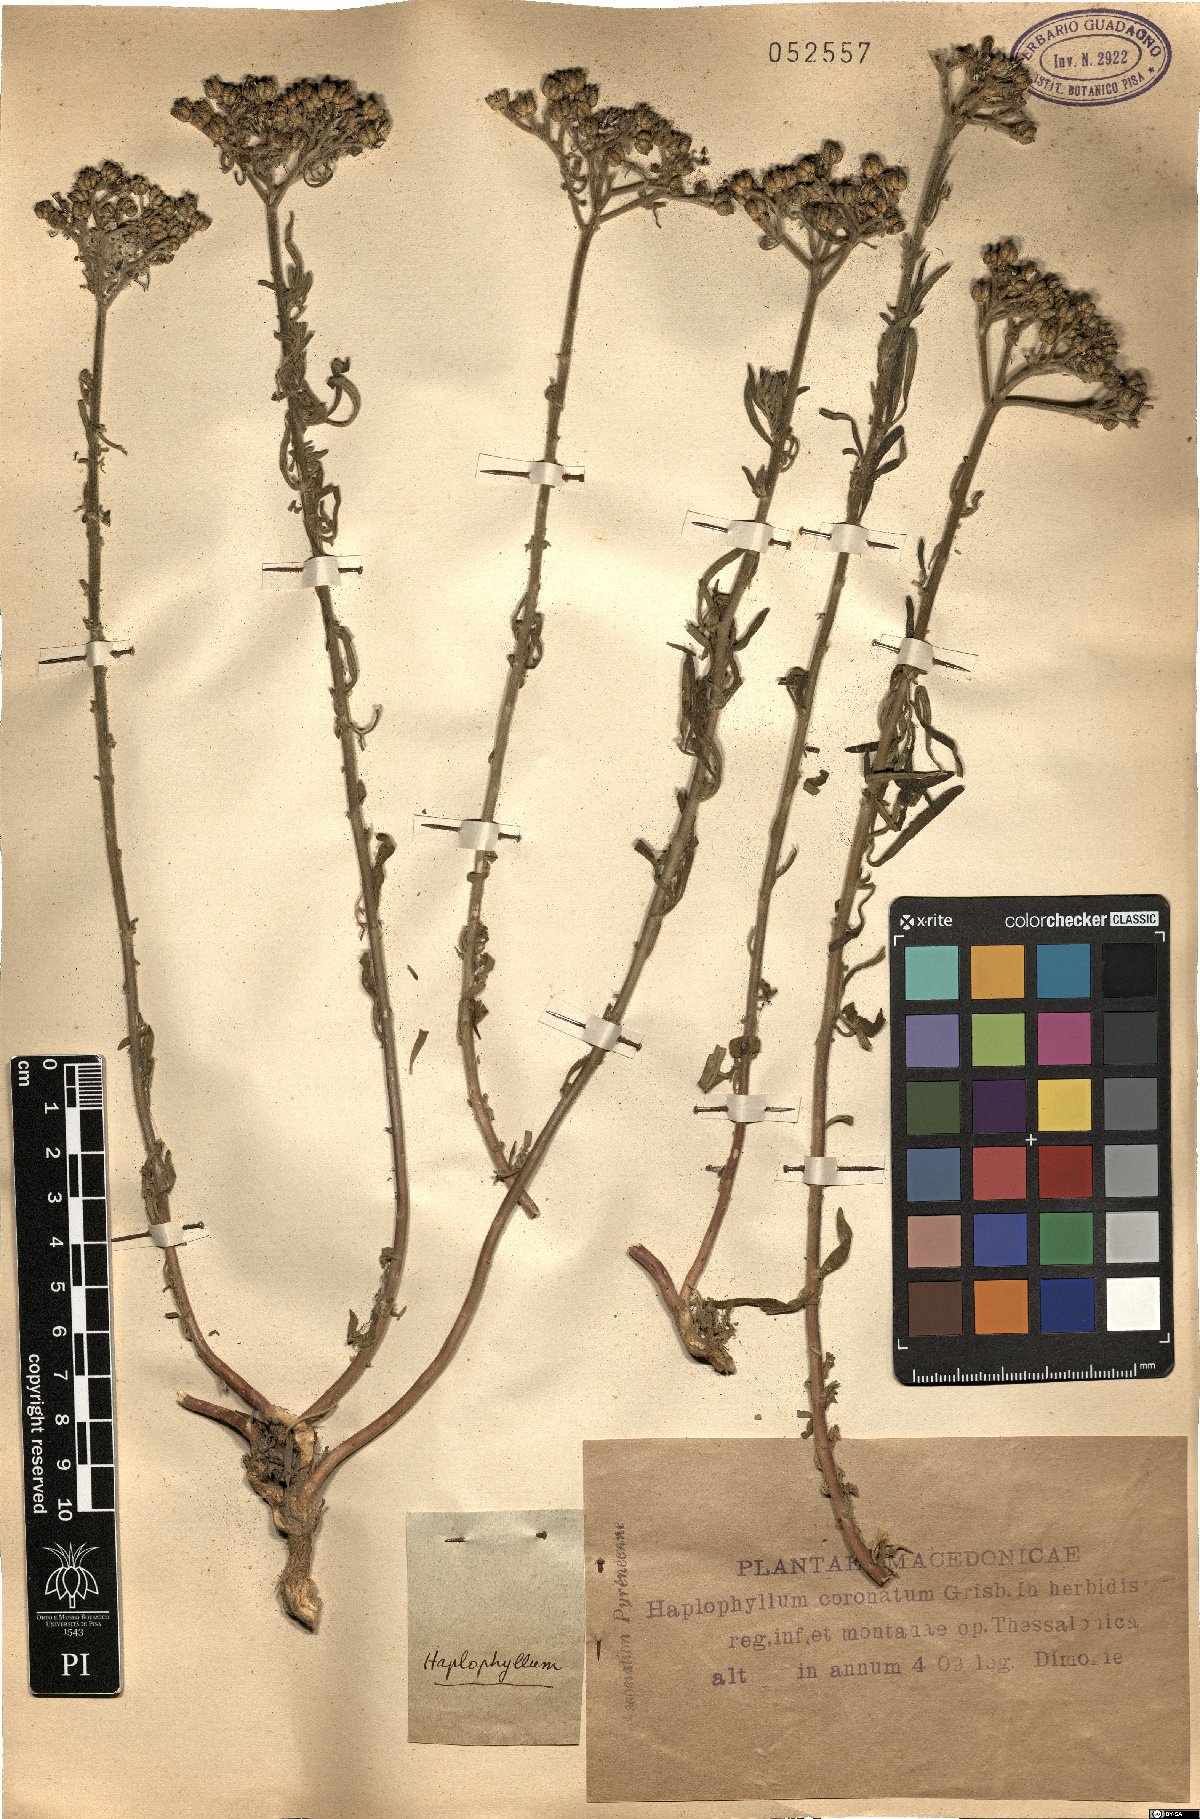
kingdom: Plantae
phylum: Tracheophyta
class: Magnoliopsida
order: Sapindales
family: Rutaceae
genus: Haplophyllum
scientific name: Haplophyllum coronatum
